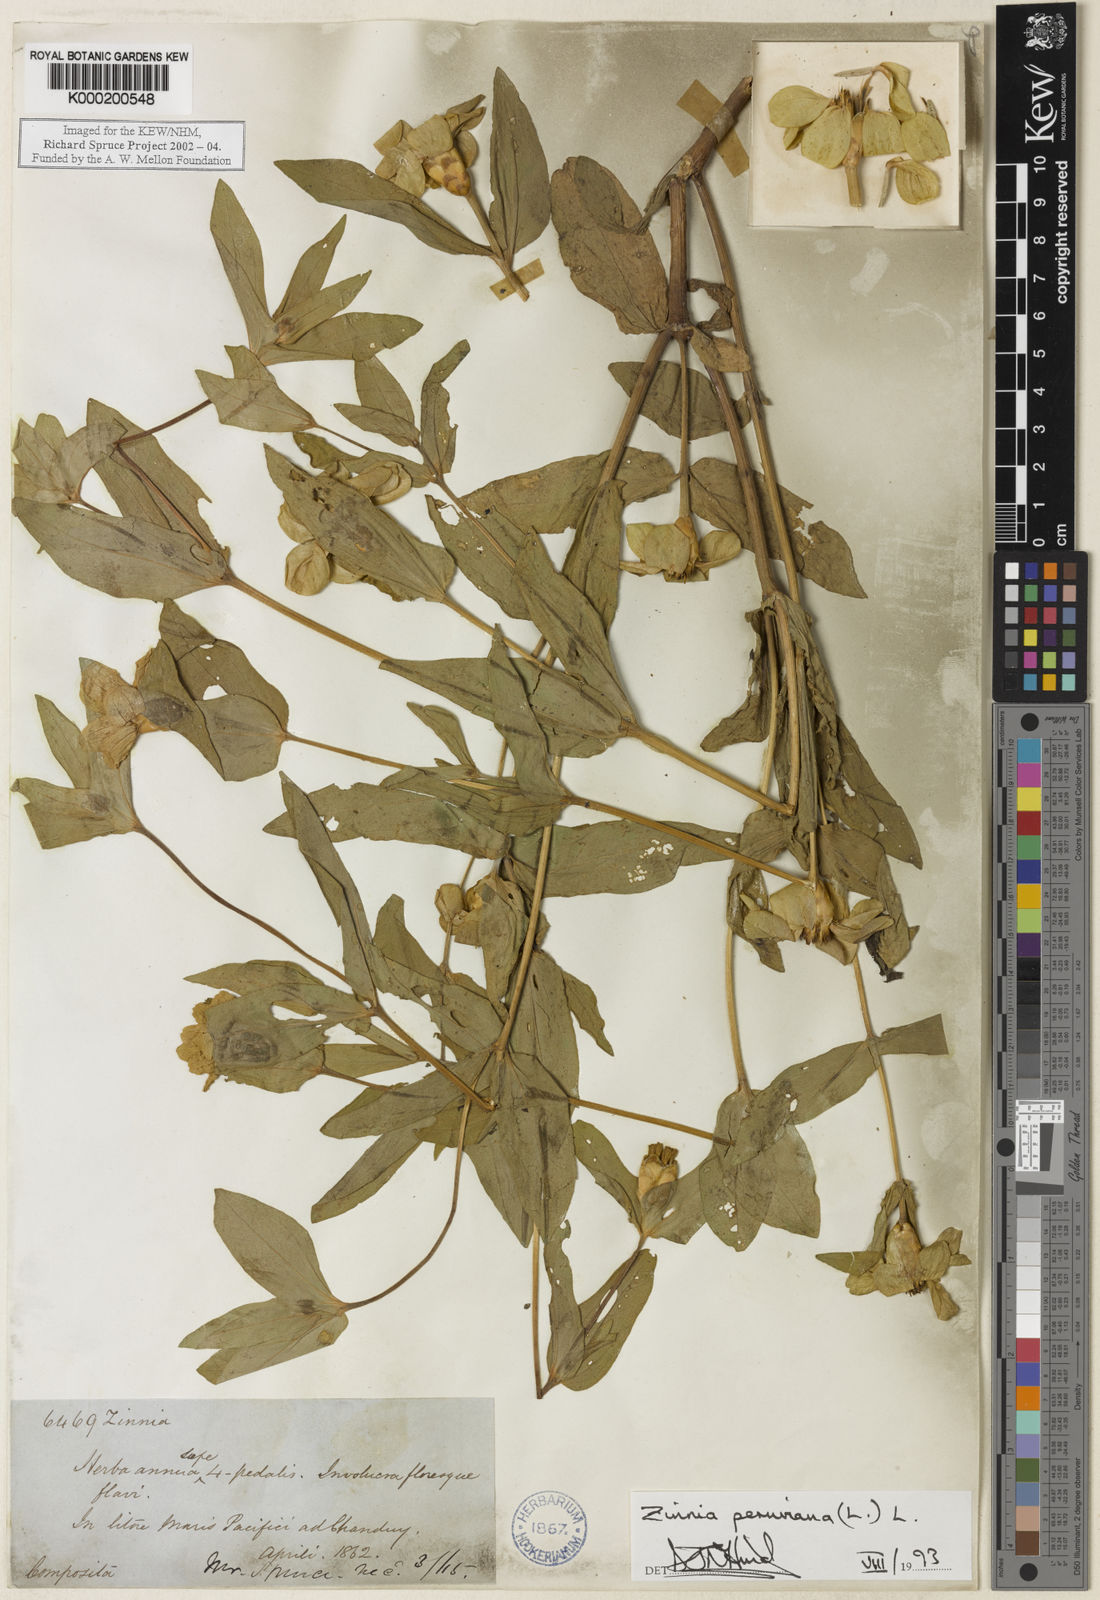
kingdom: Plantae
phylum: Tracheophyta
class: Magnoliopsida
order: Asterales
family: Asteraceae
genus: Zinnia
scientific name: Zinnia peruviana
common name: Peruvian zinnia
